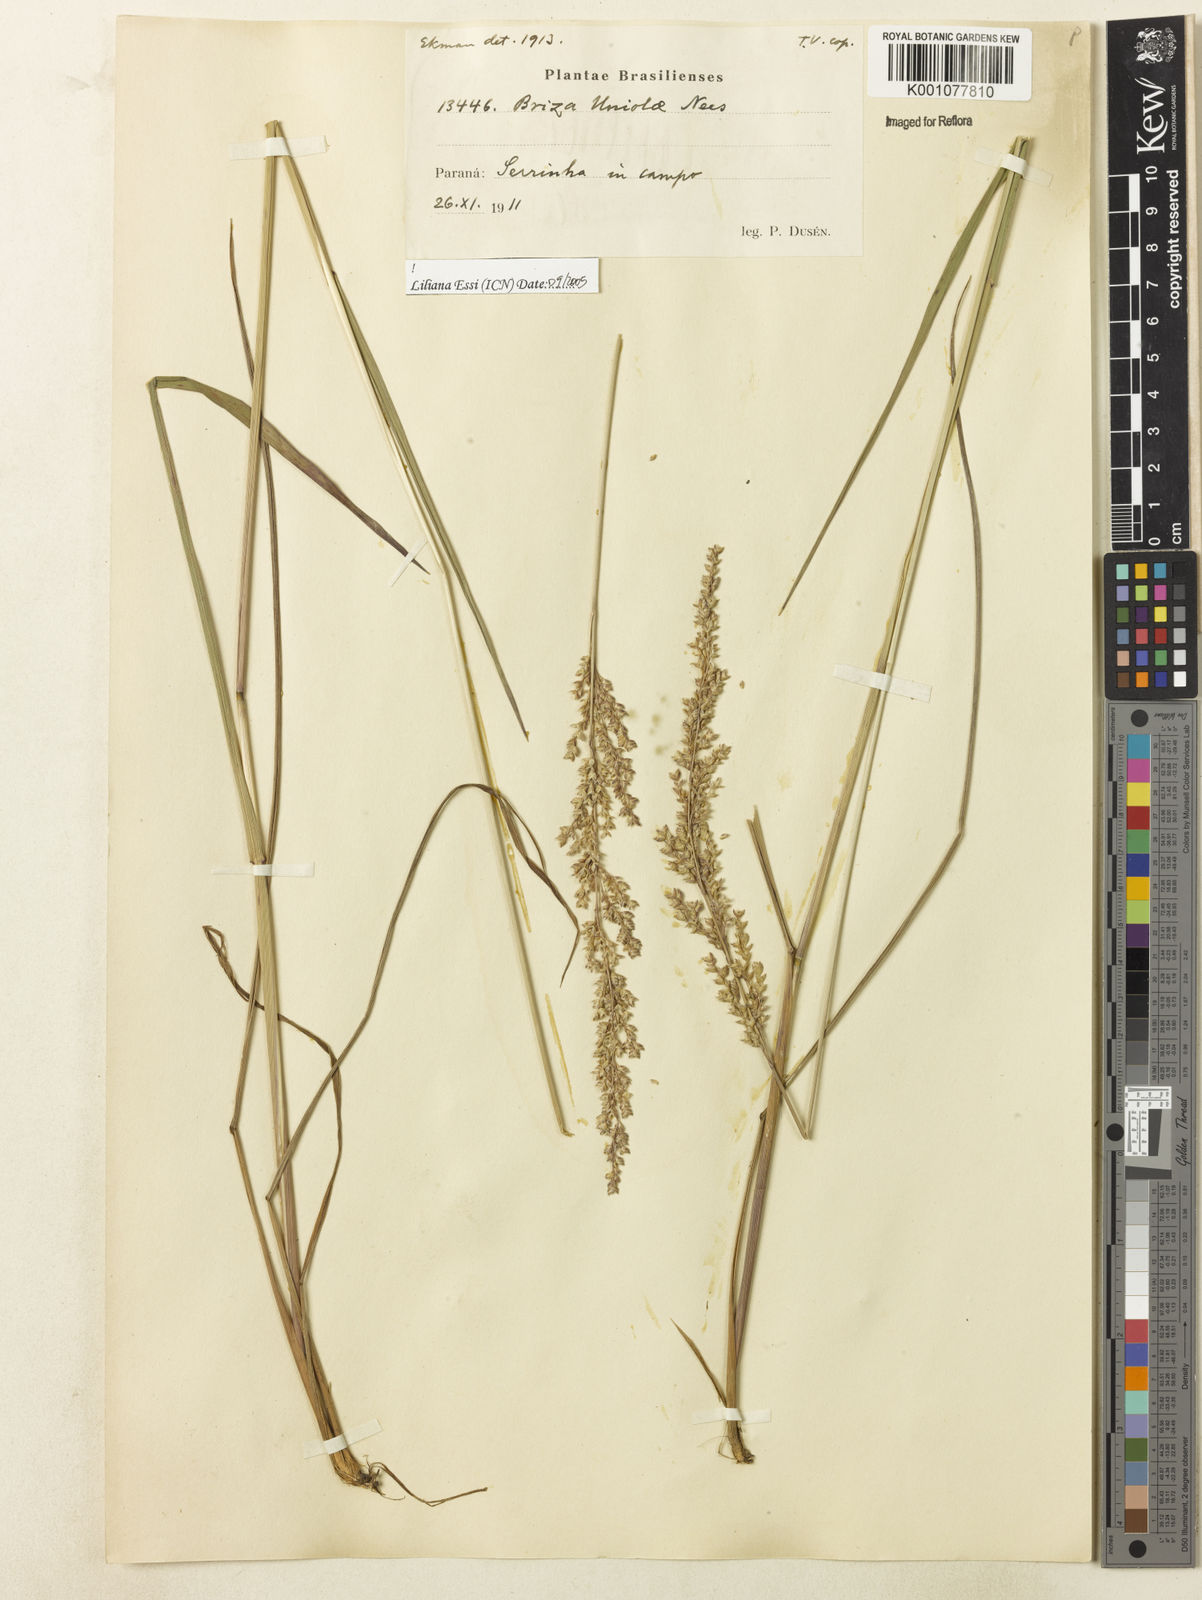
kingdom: Plantae
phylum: Tracheophyta
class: Liliopsida
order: Poales
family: Poaceae
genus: Poidium
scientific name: Poidium uniolae
